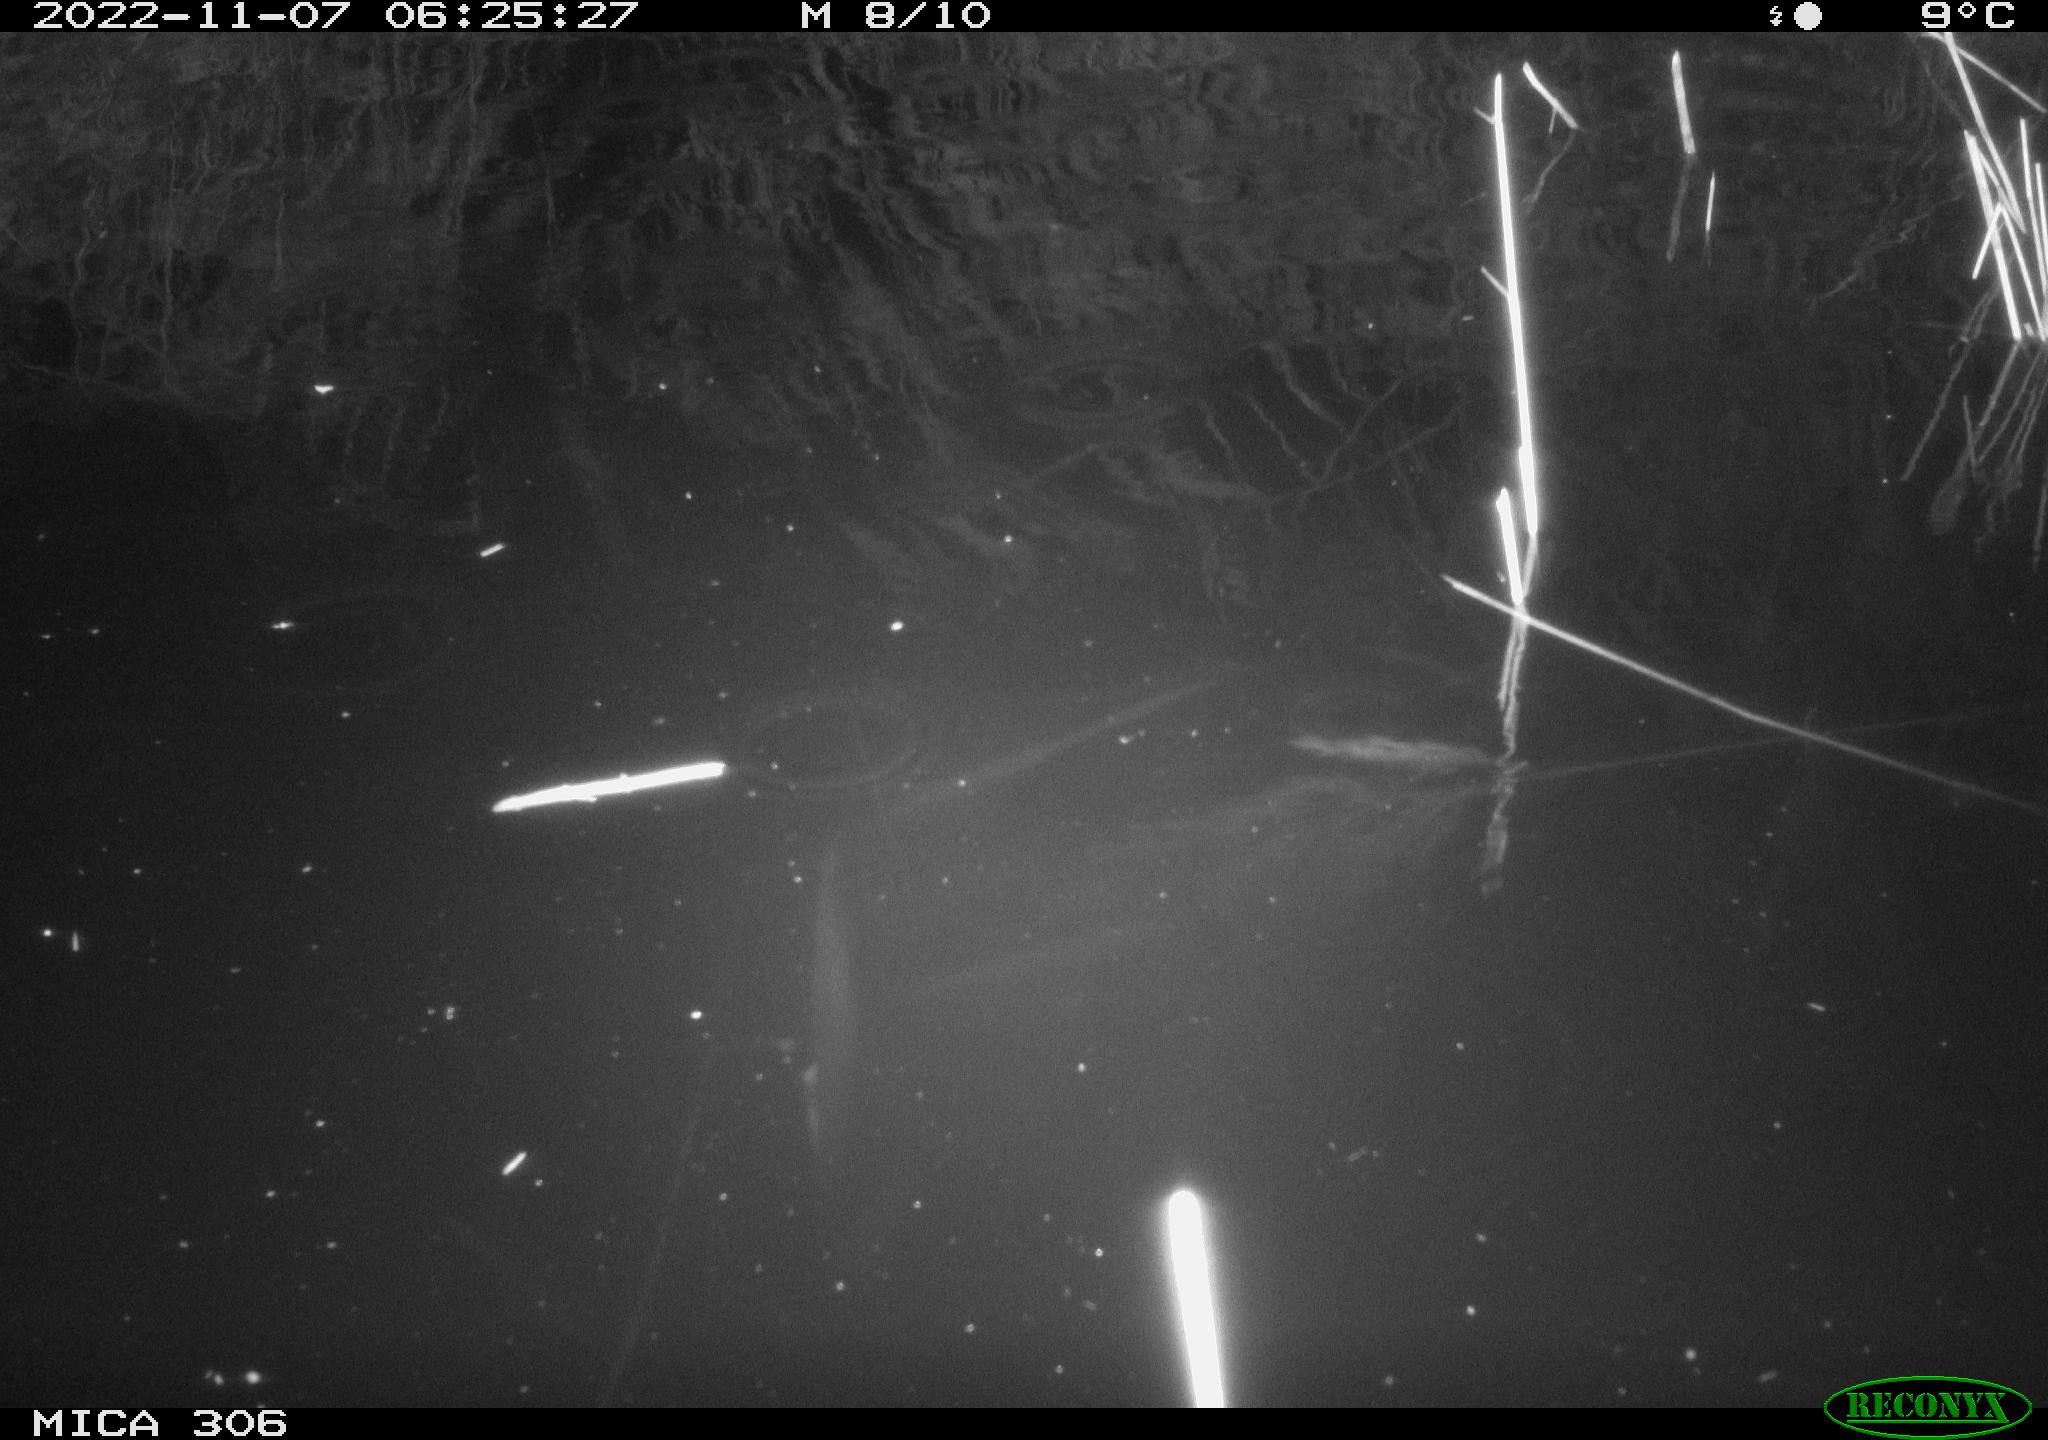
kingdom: Animalia
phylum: Chordata
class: Mammalia
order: Rodentia
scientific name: Rodentia
